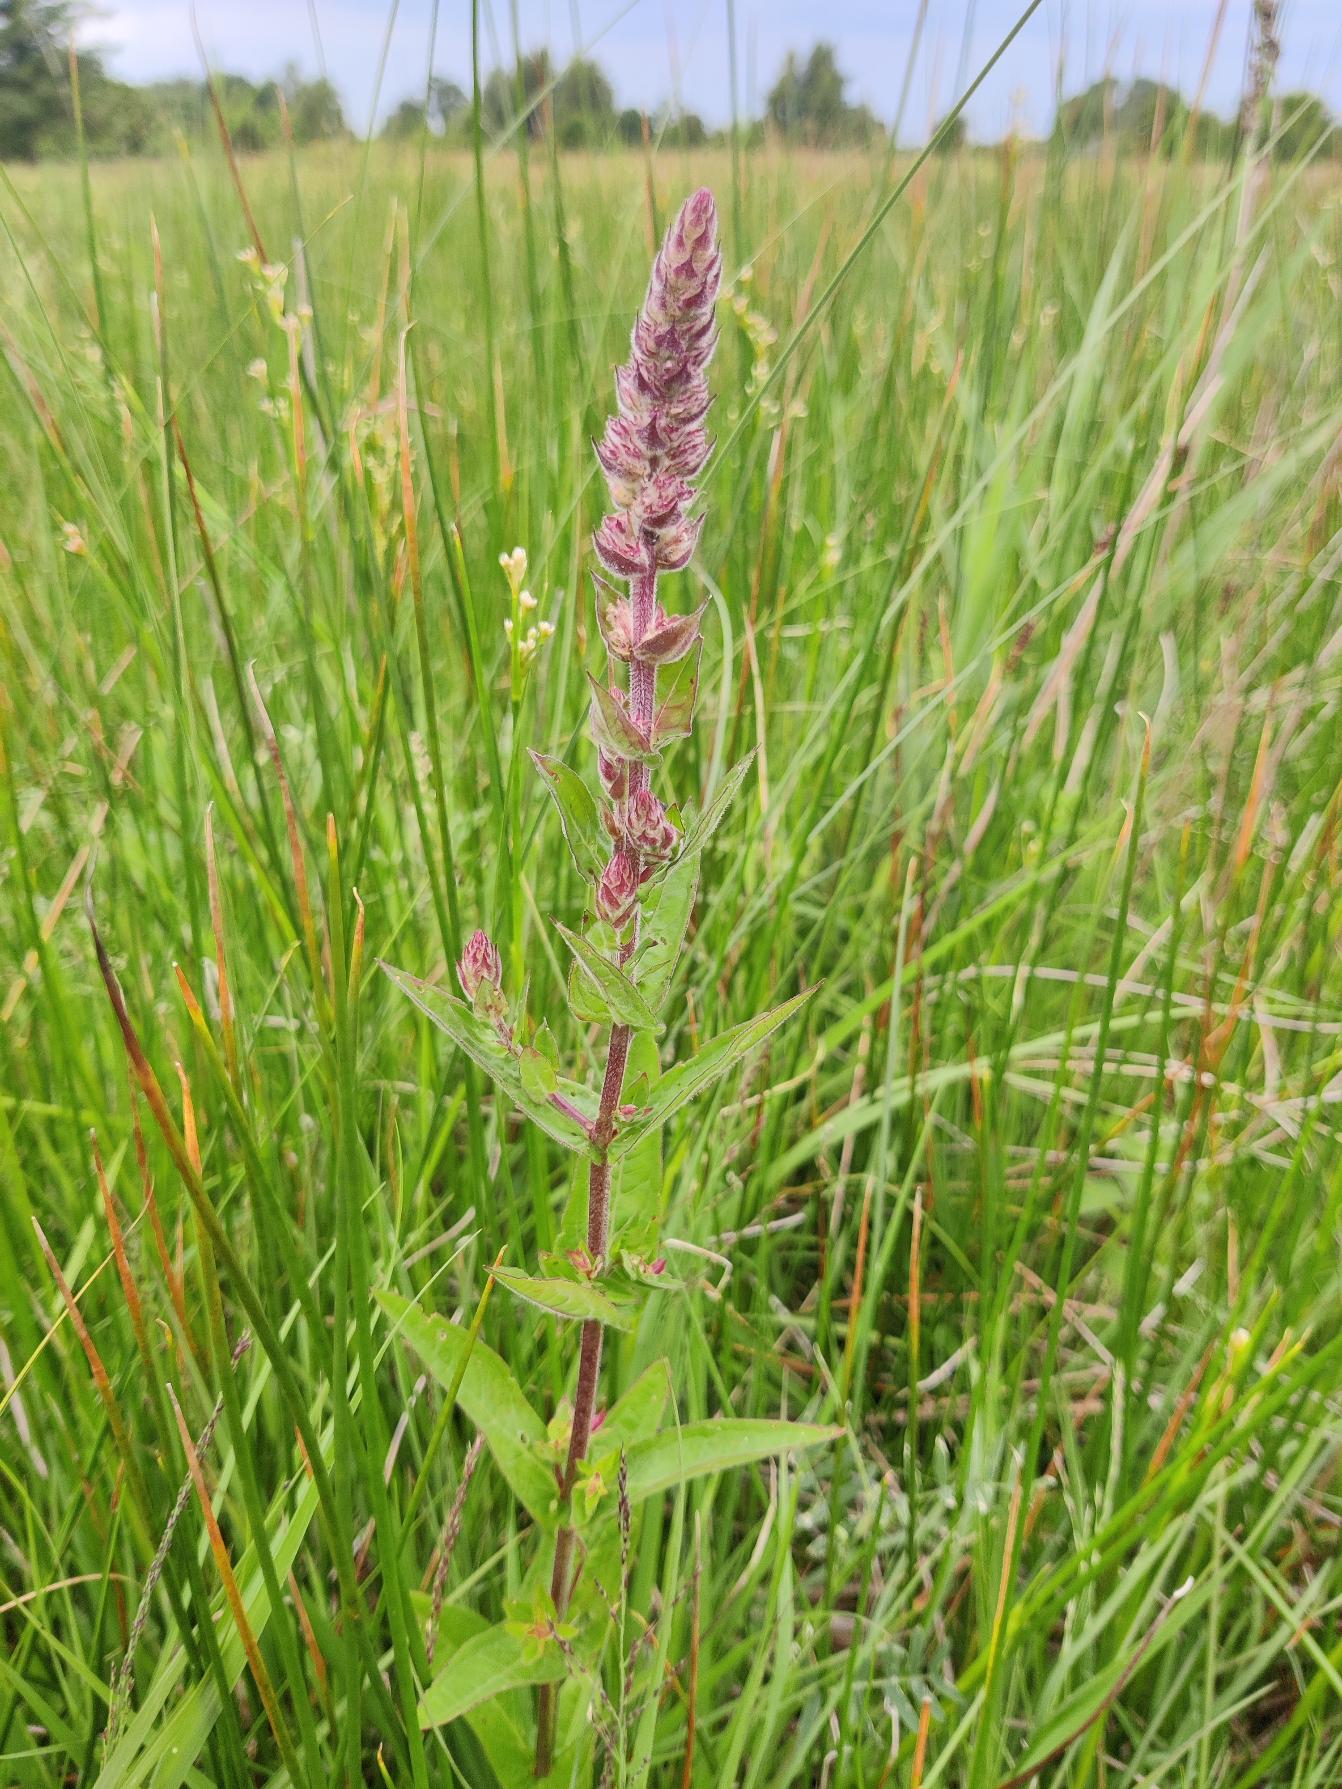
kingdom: Plantae
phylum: Tracheophyta
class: Magnoliopsida
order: Myrtales
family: Lythraceae
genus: Lythrum
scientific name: Lythrum salicaria
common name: Kattehale
